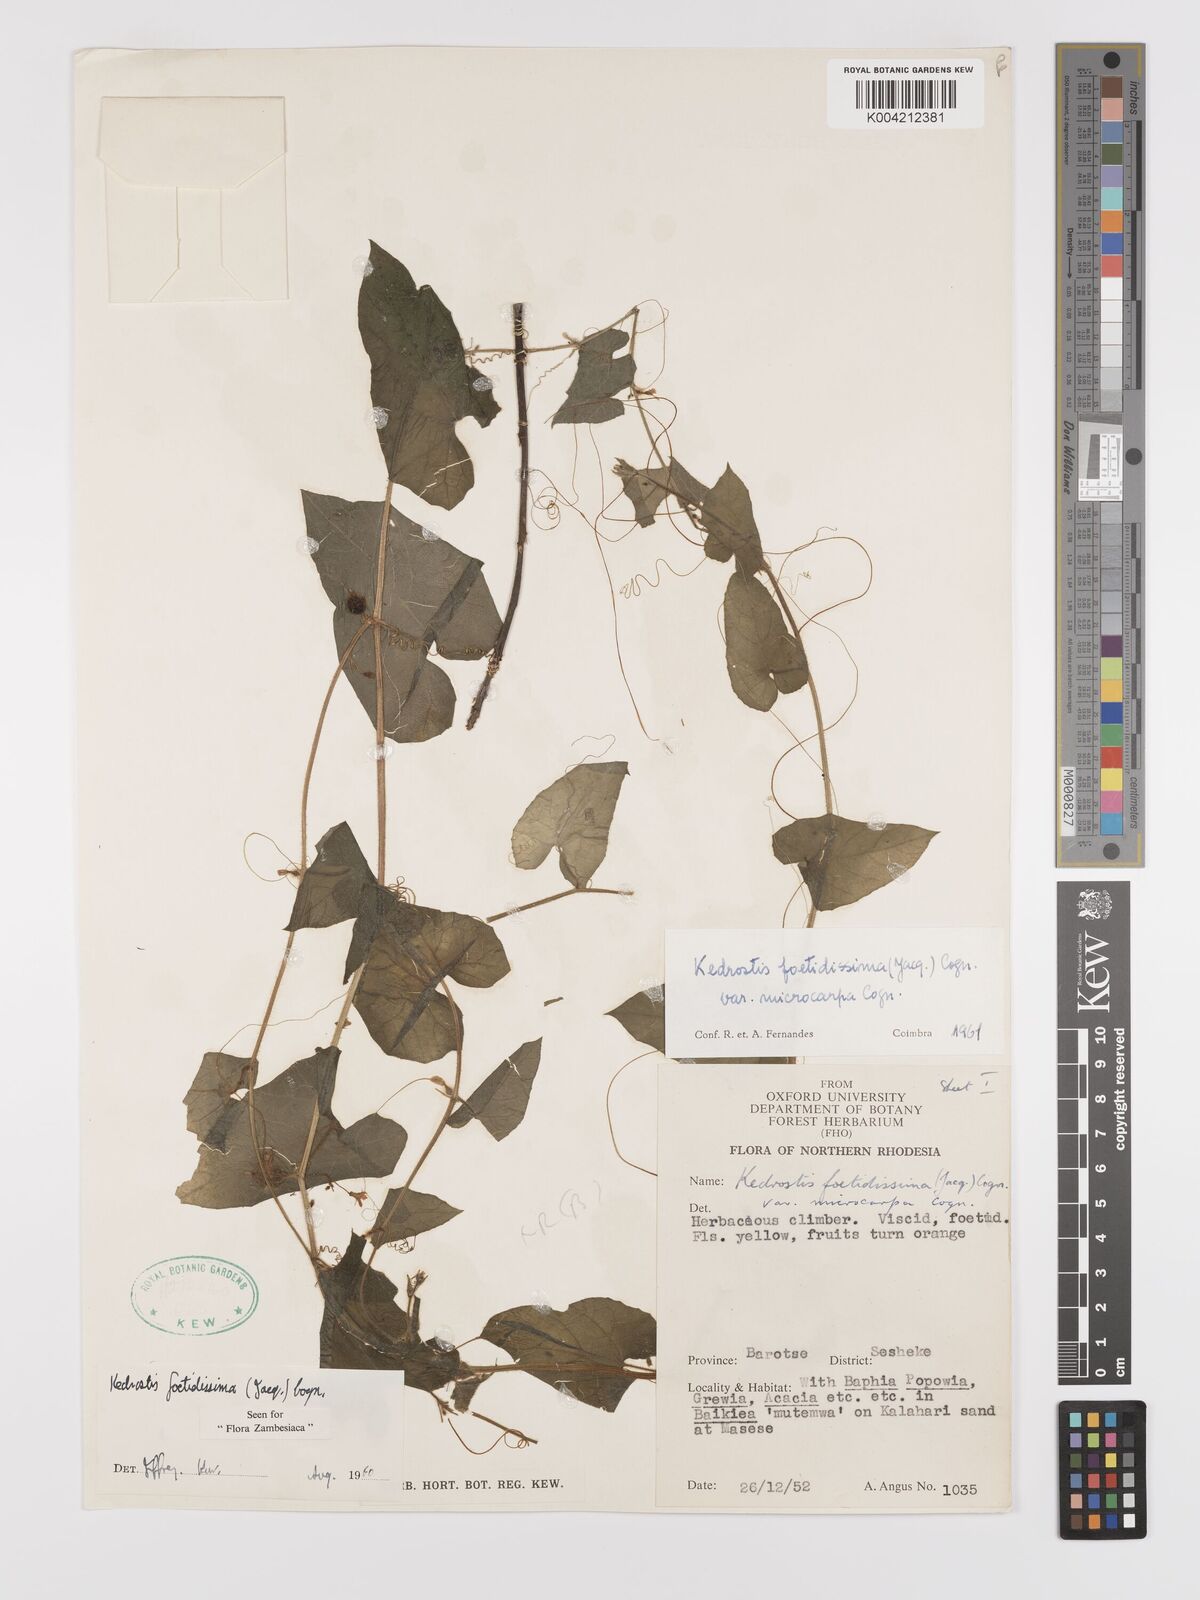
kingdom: Plantae
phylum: Tracheophyta
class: Magnoliopsida
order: Cucurbitales
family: Cucurbitaceae
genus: Kedrostis
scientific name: Kedrostis foetidissima
